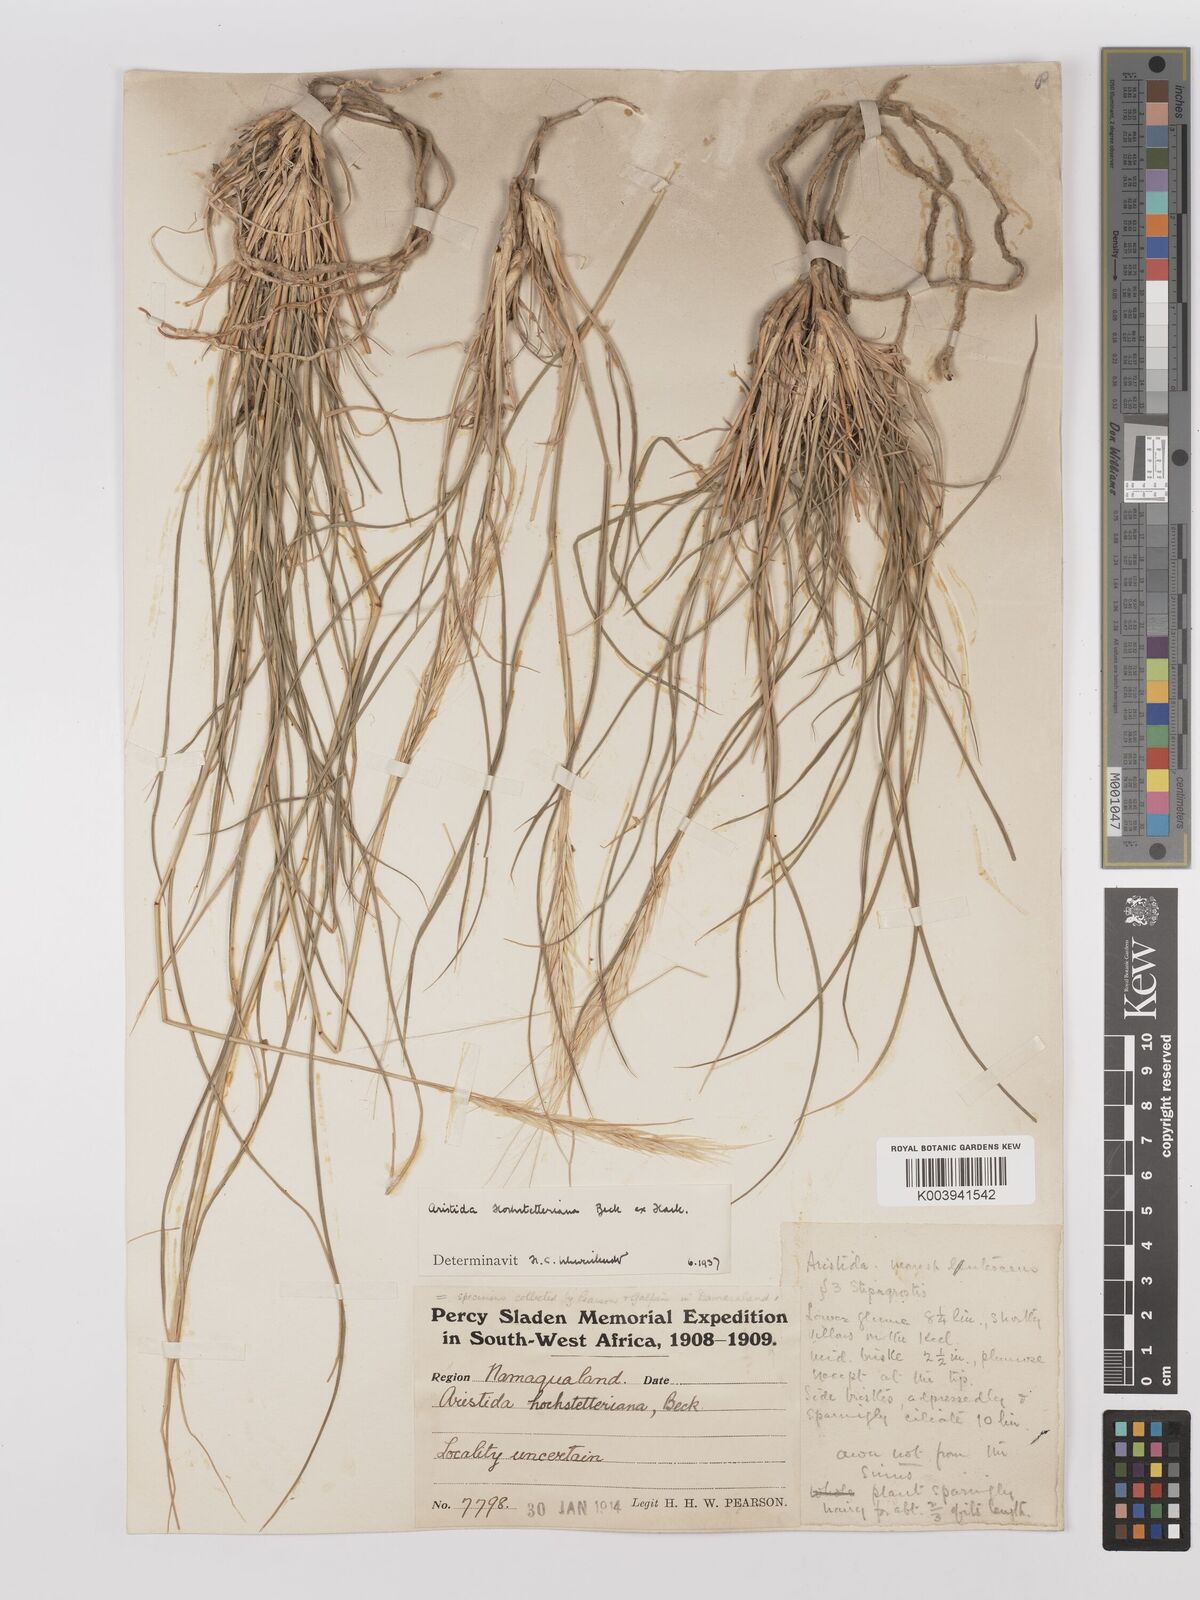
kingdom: Plantae
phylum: Tracheophyta
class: Liliopsida
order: Poales
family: Poaceae
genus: Stipagrostis
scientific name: Stipagrostis hochstetteriana
